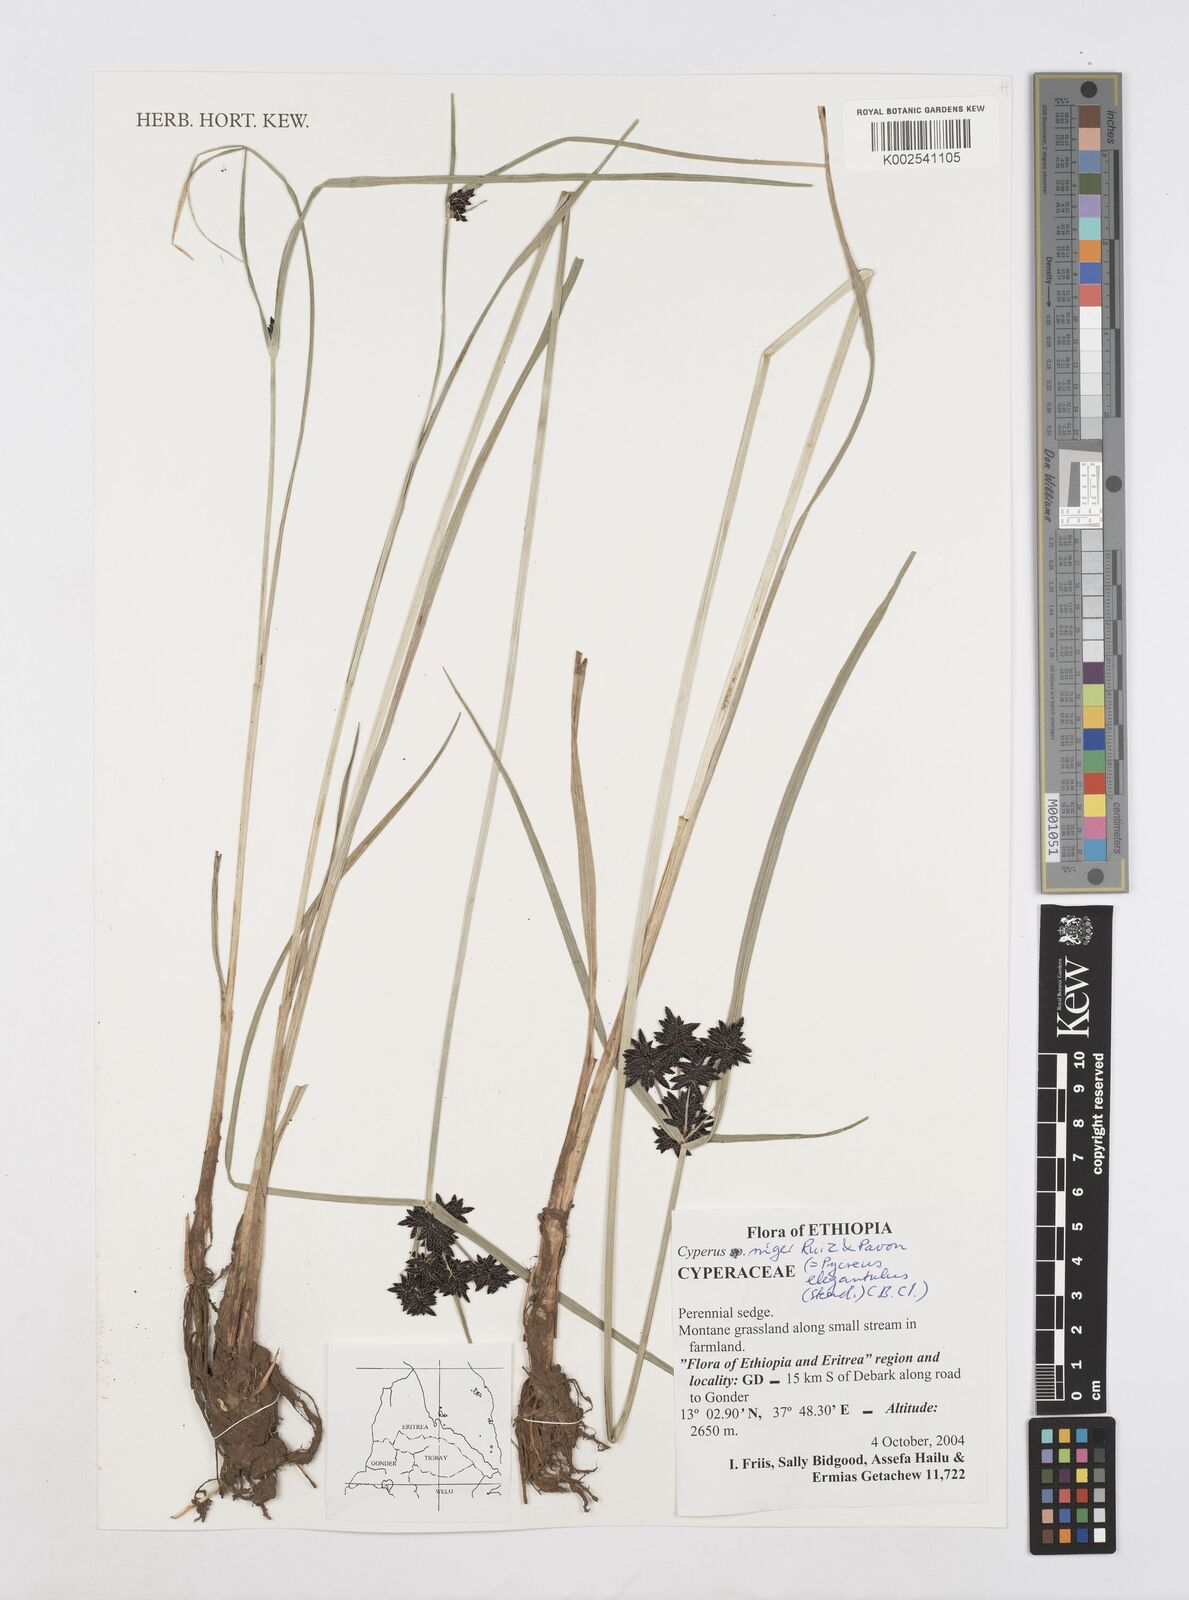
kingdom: Plantae
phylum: Tracheophyta
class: Liliopsida
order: Poales
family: Cyperaceae
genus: Cyperus
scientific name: Cyperus elegantulus
